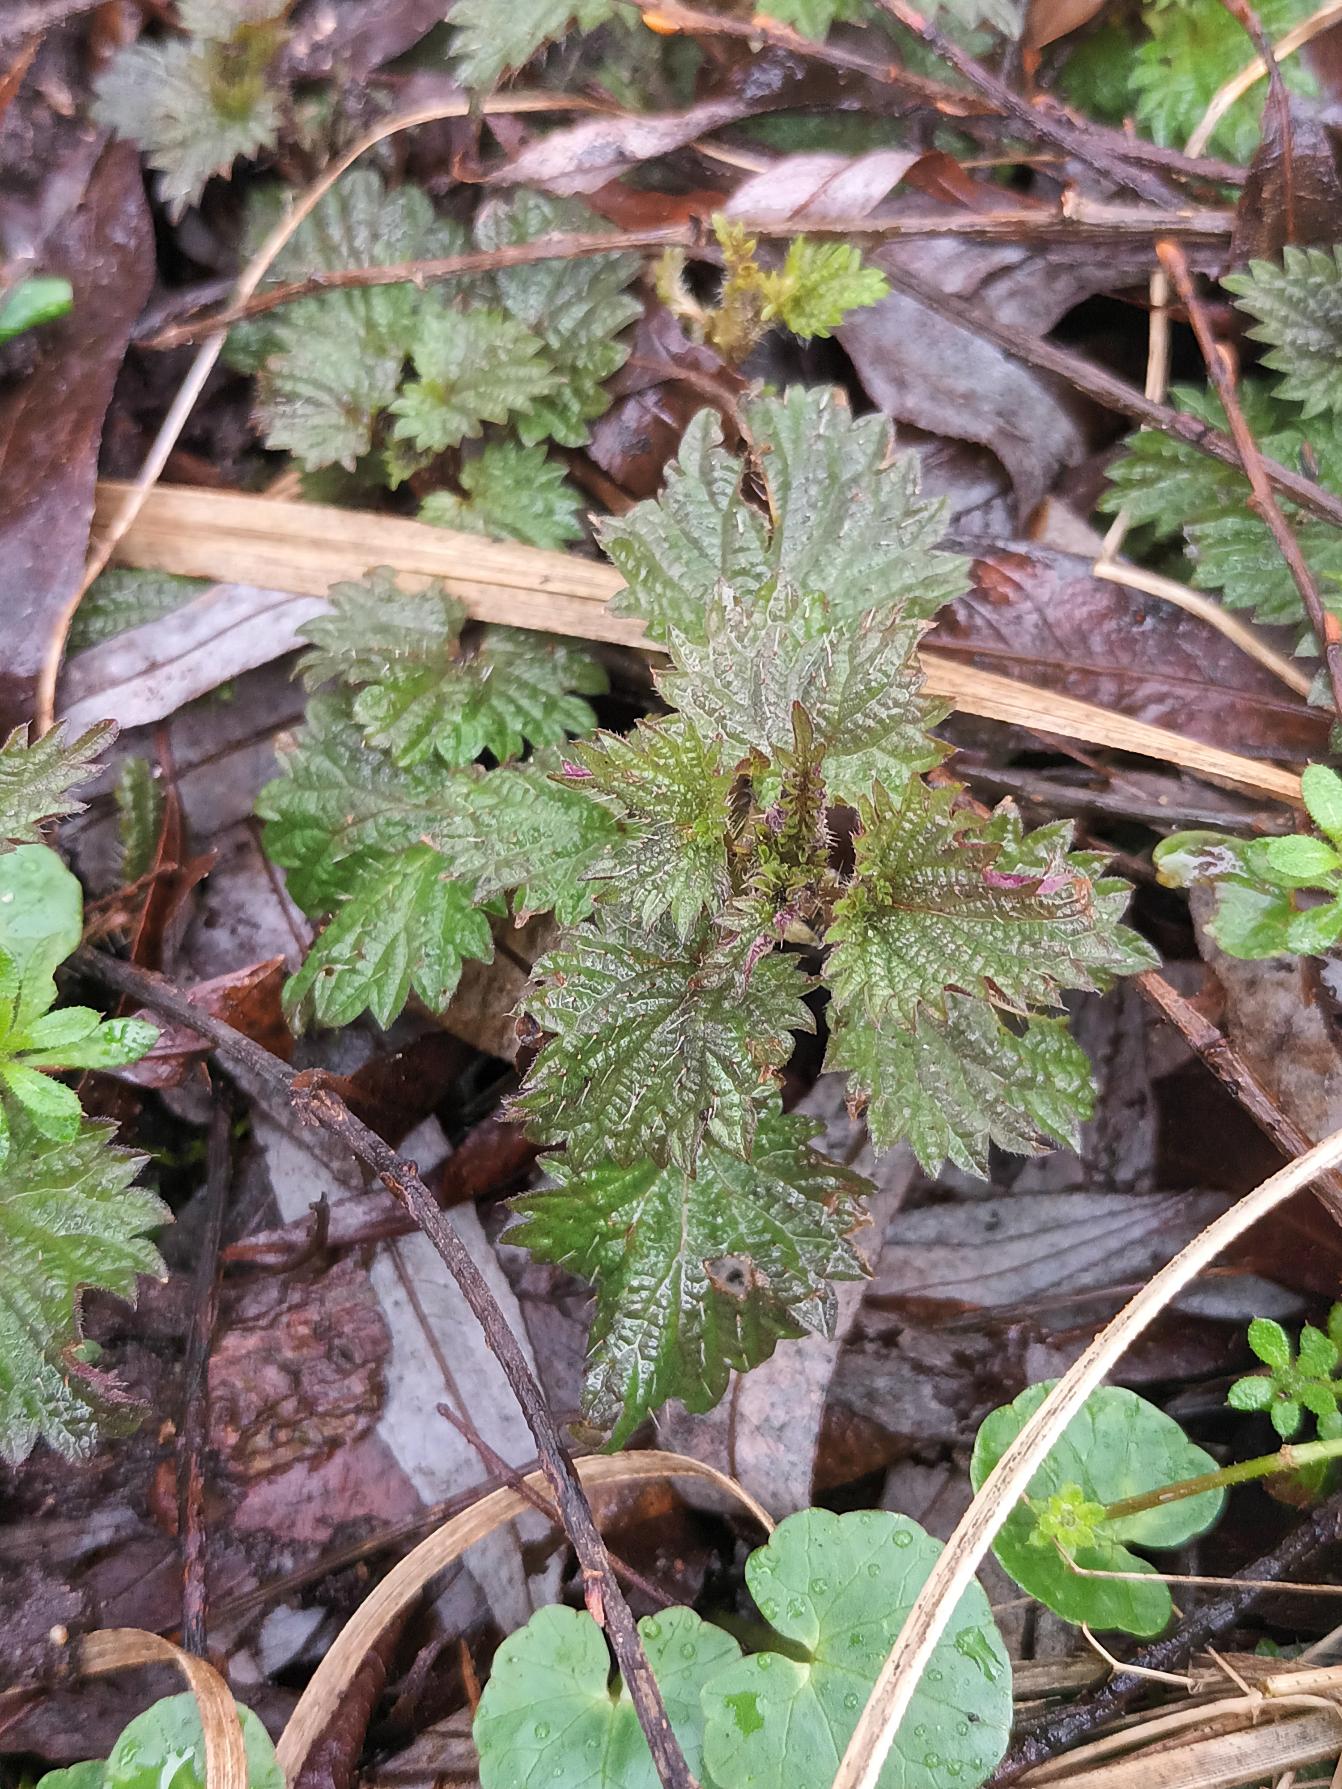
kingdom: Plantae
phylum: Tracheophyta
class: Magnoliopsida
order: Rosales
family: Urticaceae
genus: Urtica
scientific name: Urtica dioica
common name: Stor nælde
